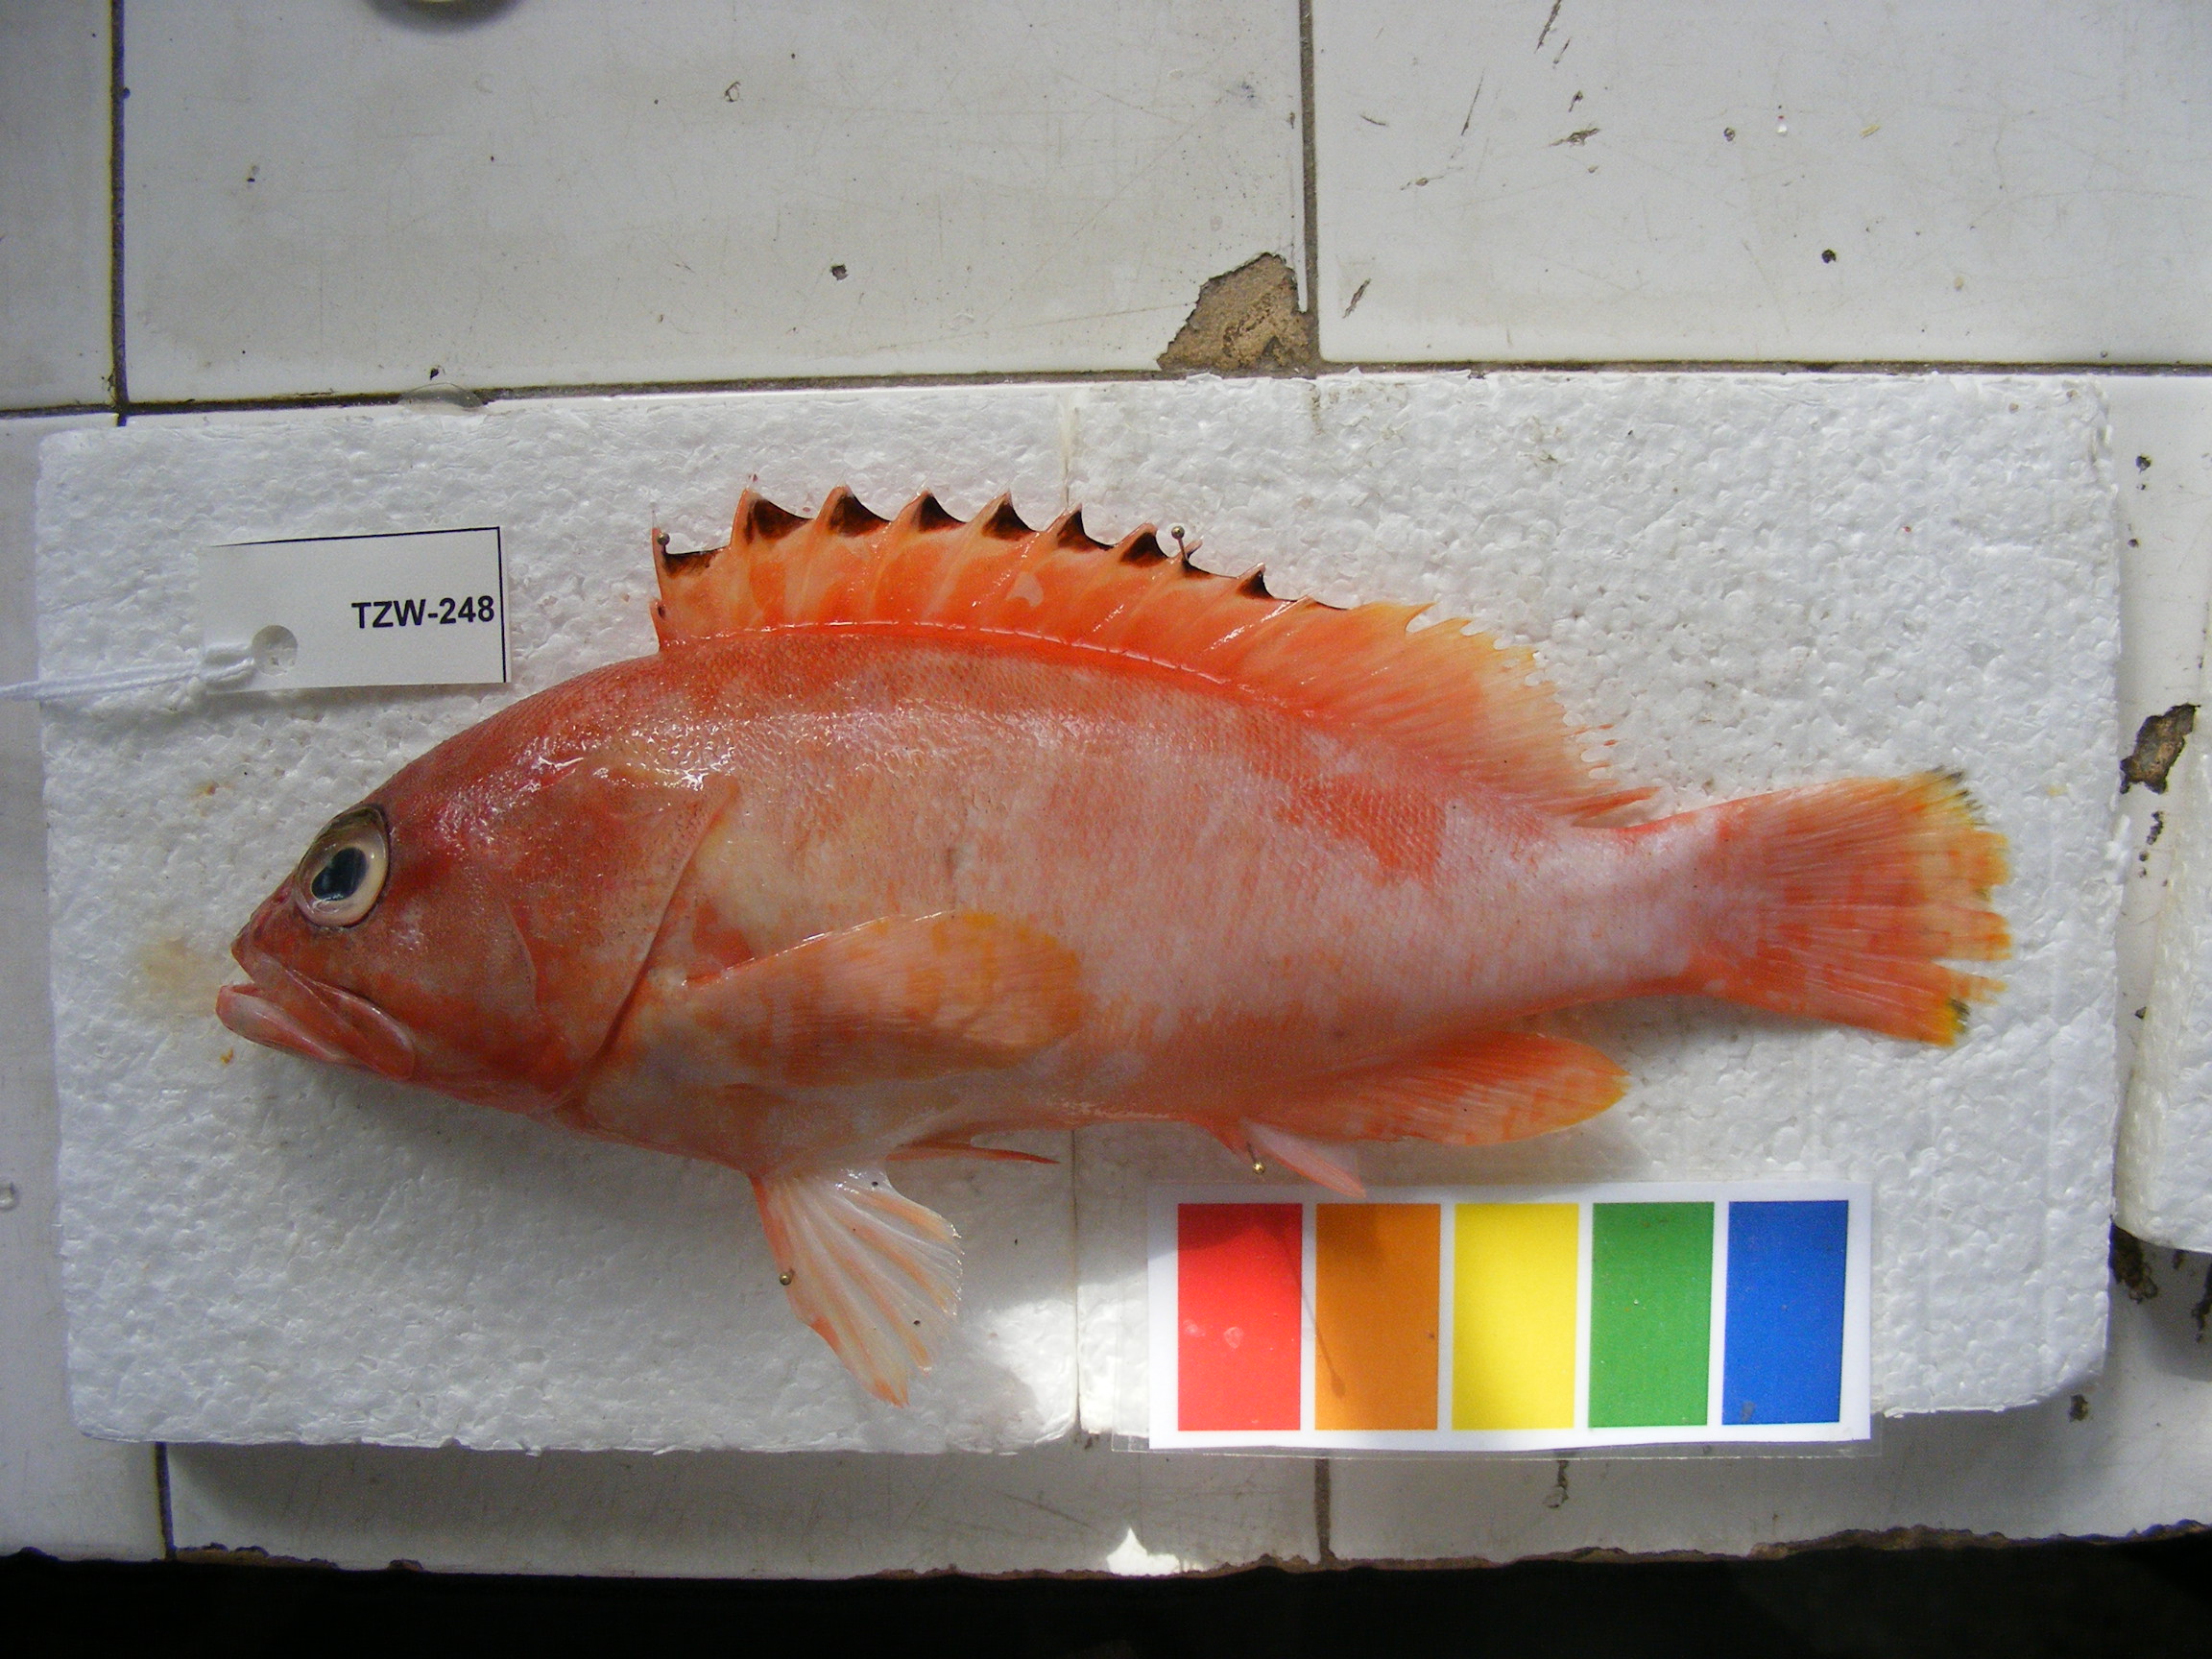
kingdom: Animalia
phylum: Chordata
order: Perciformes
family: Serranidae
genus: Epinephelus
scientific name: Epinephelus fasciatus
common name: Blacktip grouper
